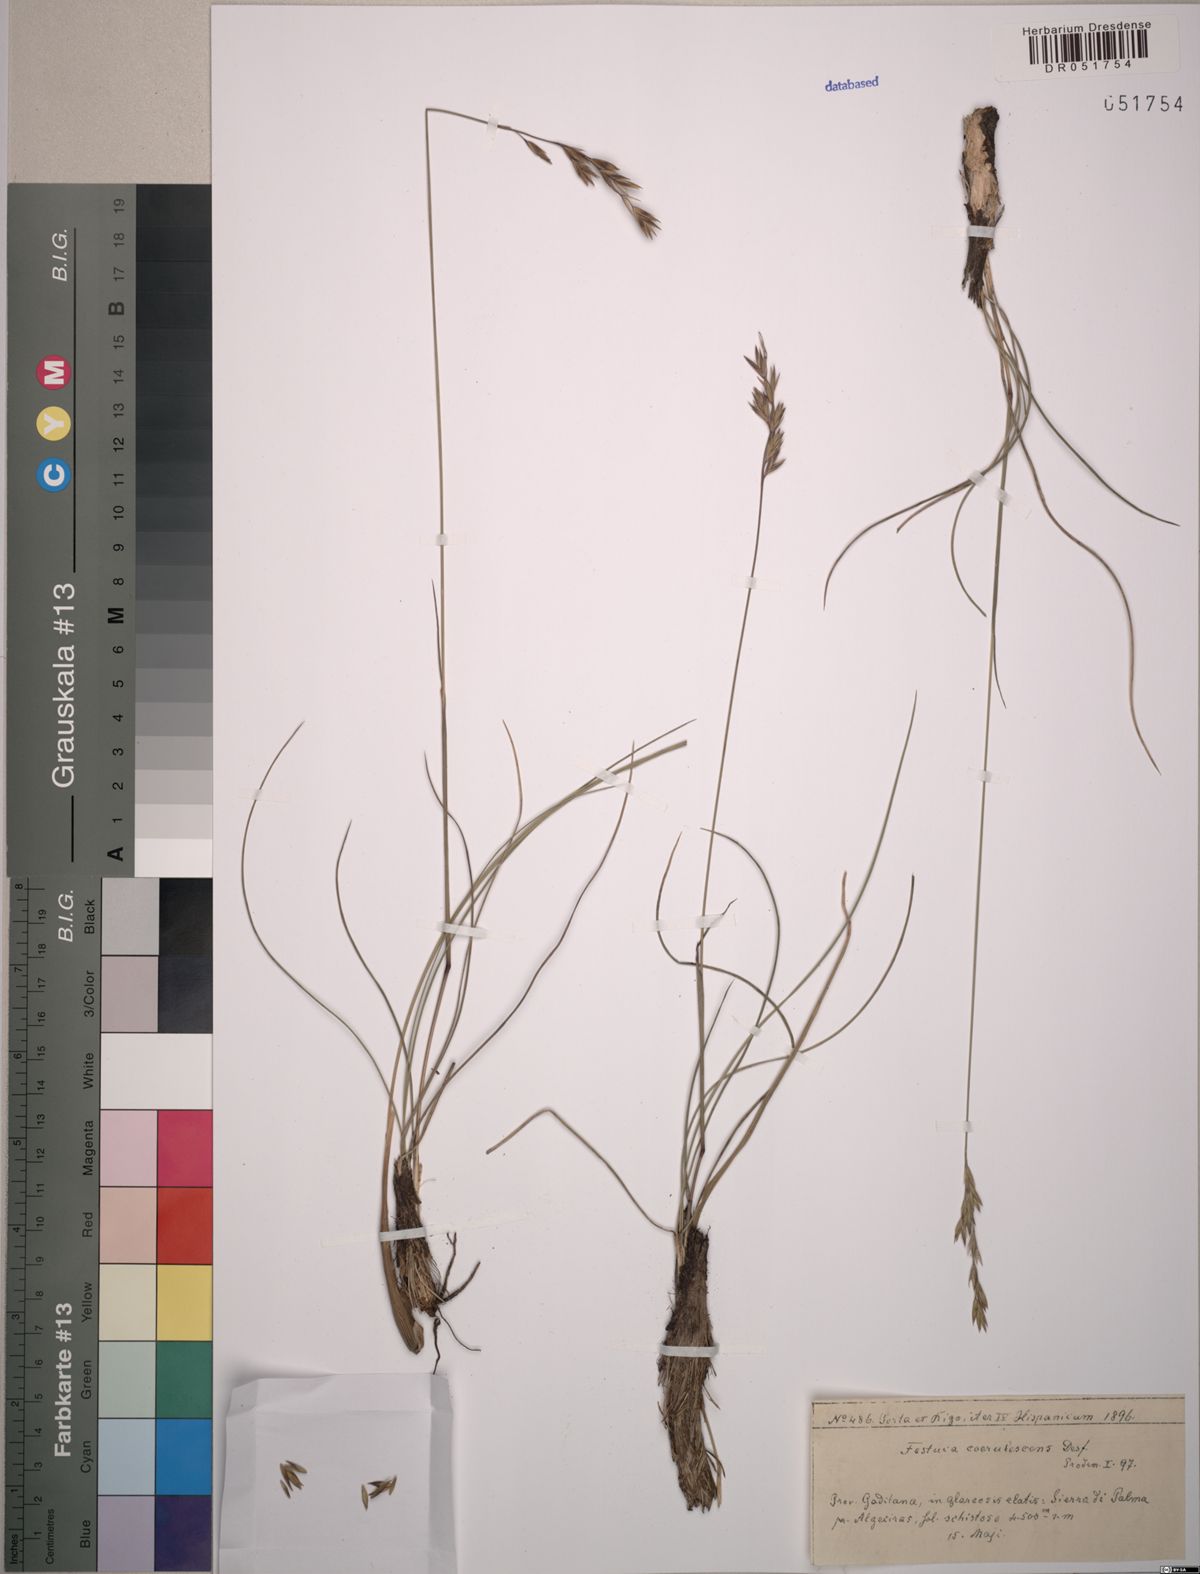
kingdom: Plantae
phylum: Tracheophyta
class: Liliopsida
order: Poales
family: Poaceae
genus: Patzkea
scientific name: Patzkea coerulescens
